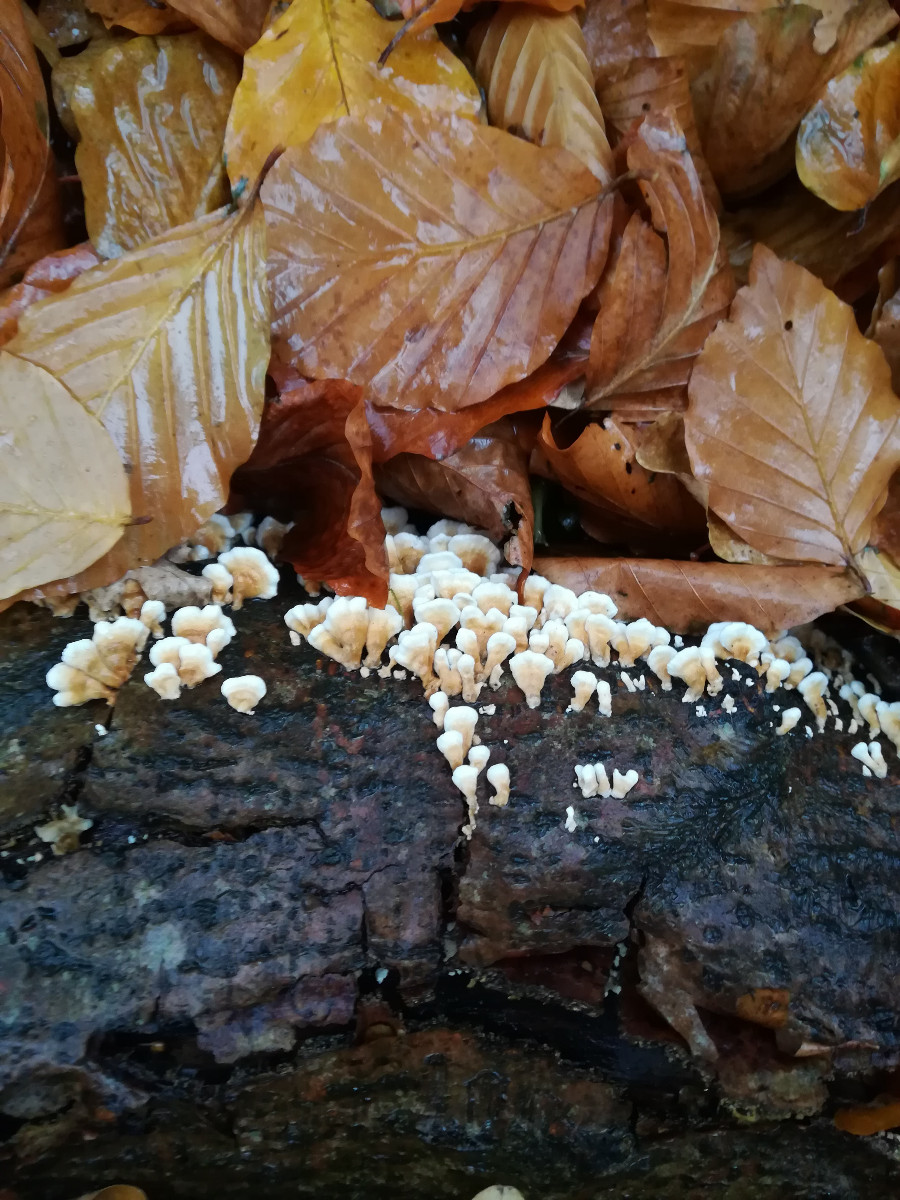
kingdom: Fungi
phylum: Basidiomycota
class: Agaricomycetes
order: Amylocorticiales
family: Amylocorticiaceae
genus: Plicaturopsis
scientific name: Plicaturopsis crispa
